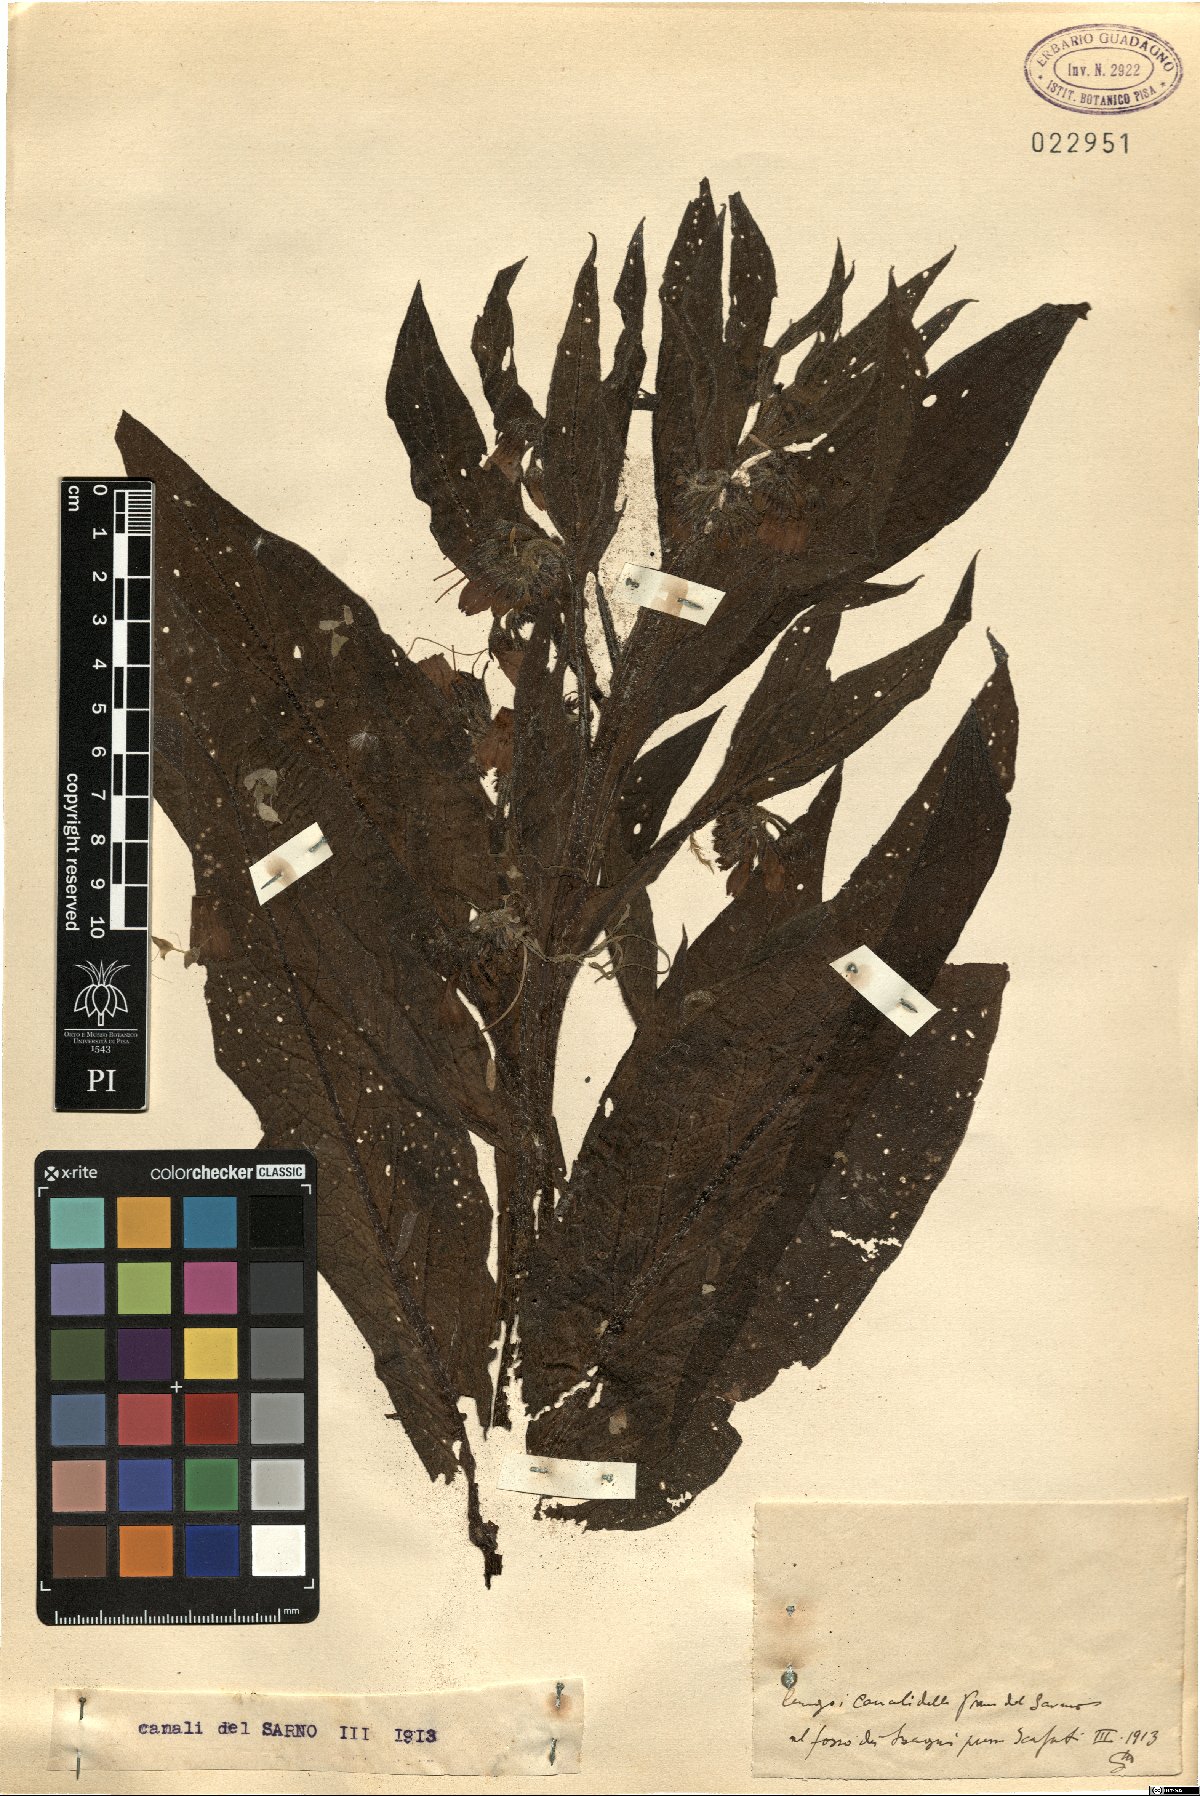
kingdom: Plantae
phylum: Tracheophyta
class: Magnoliopsida
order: Boraginales
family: Boraginaceae
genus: Symphytum
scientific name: Symphytum
